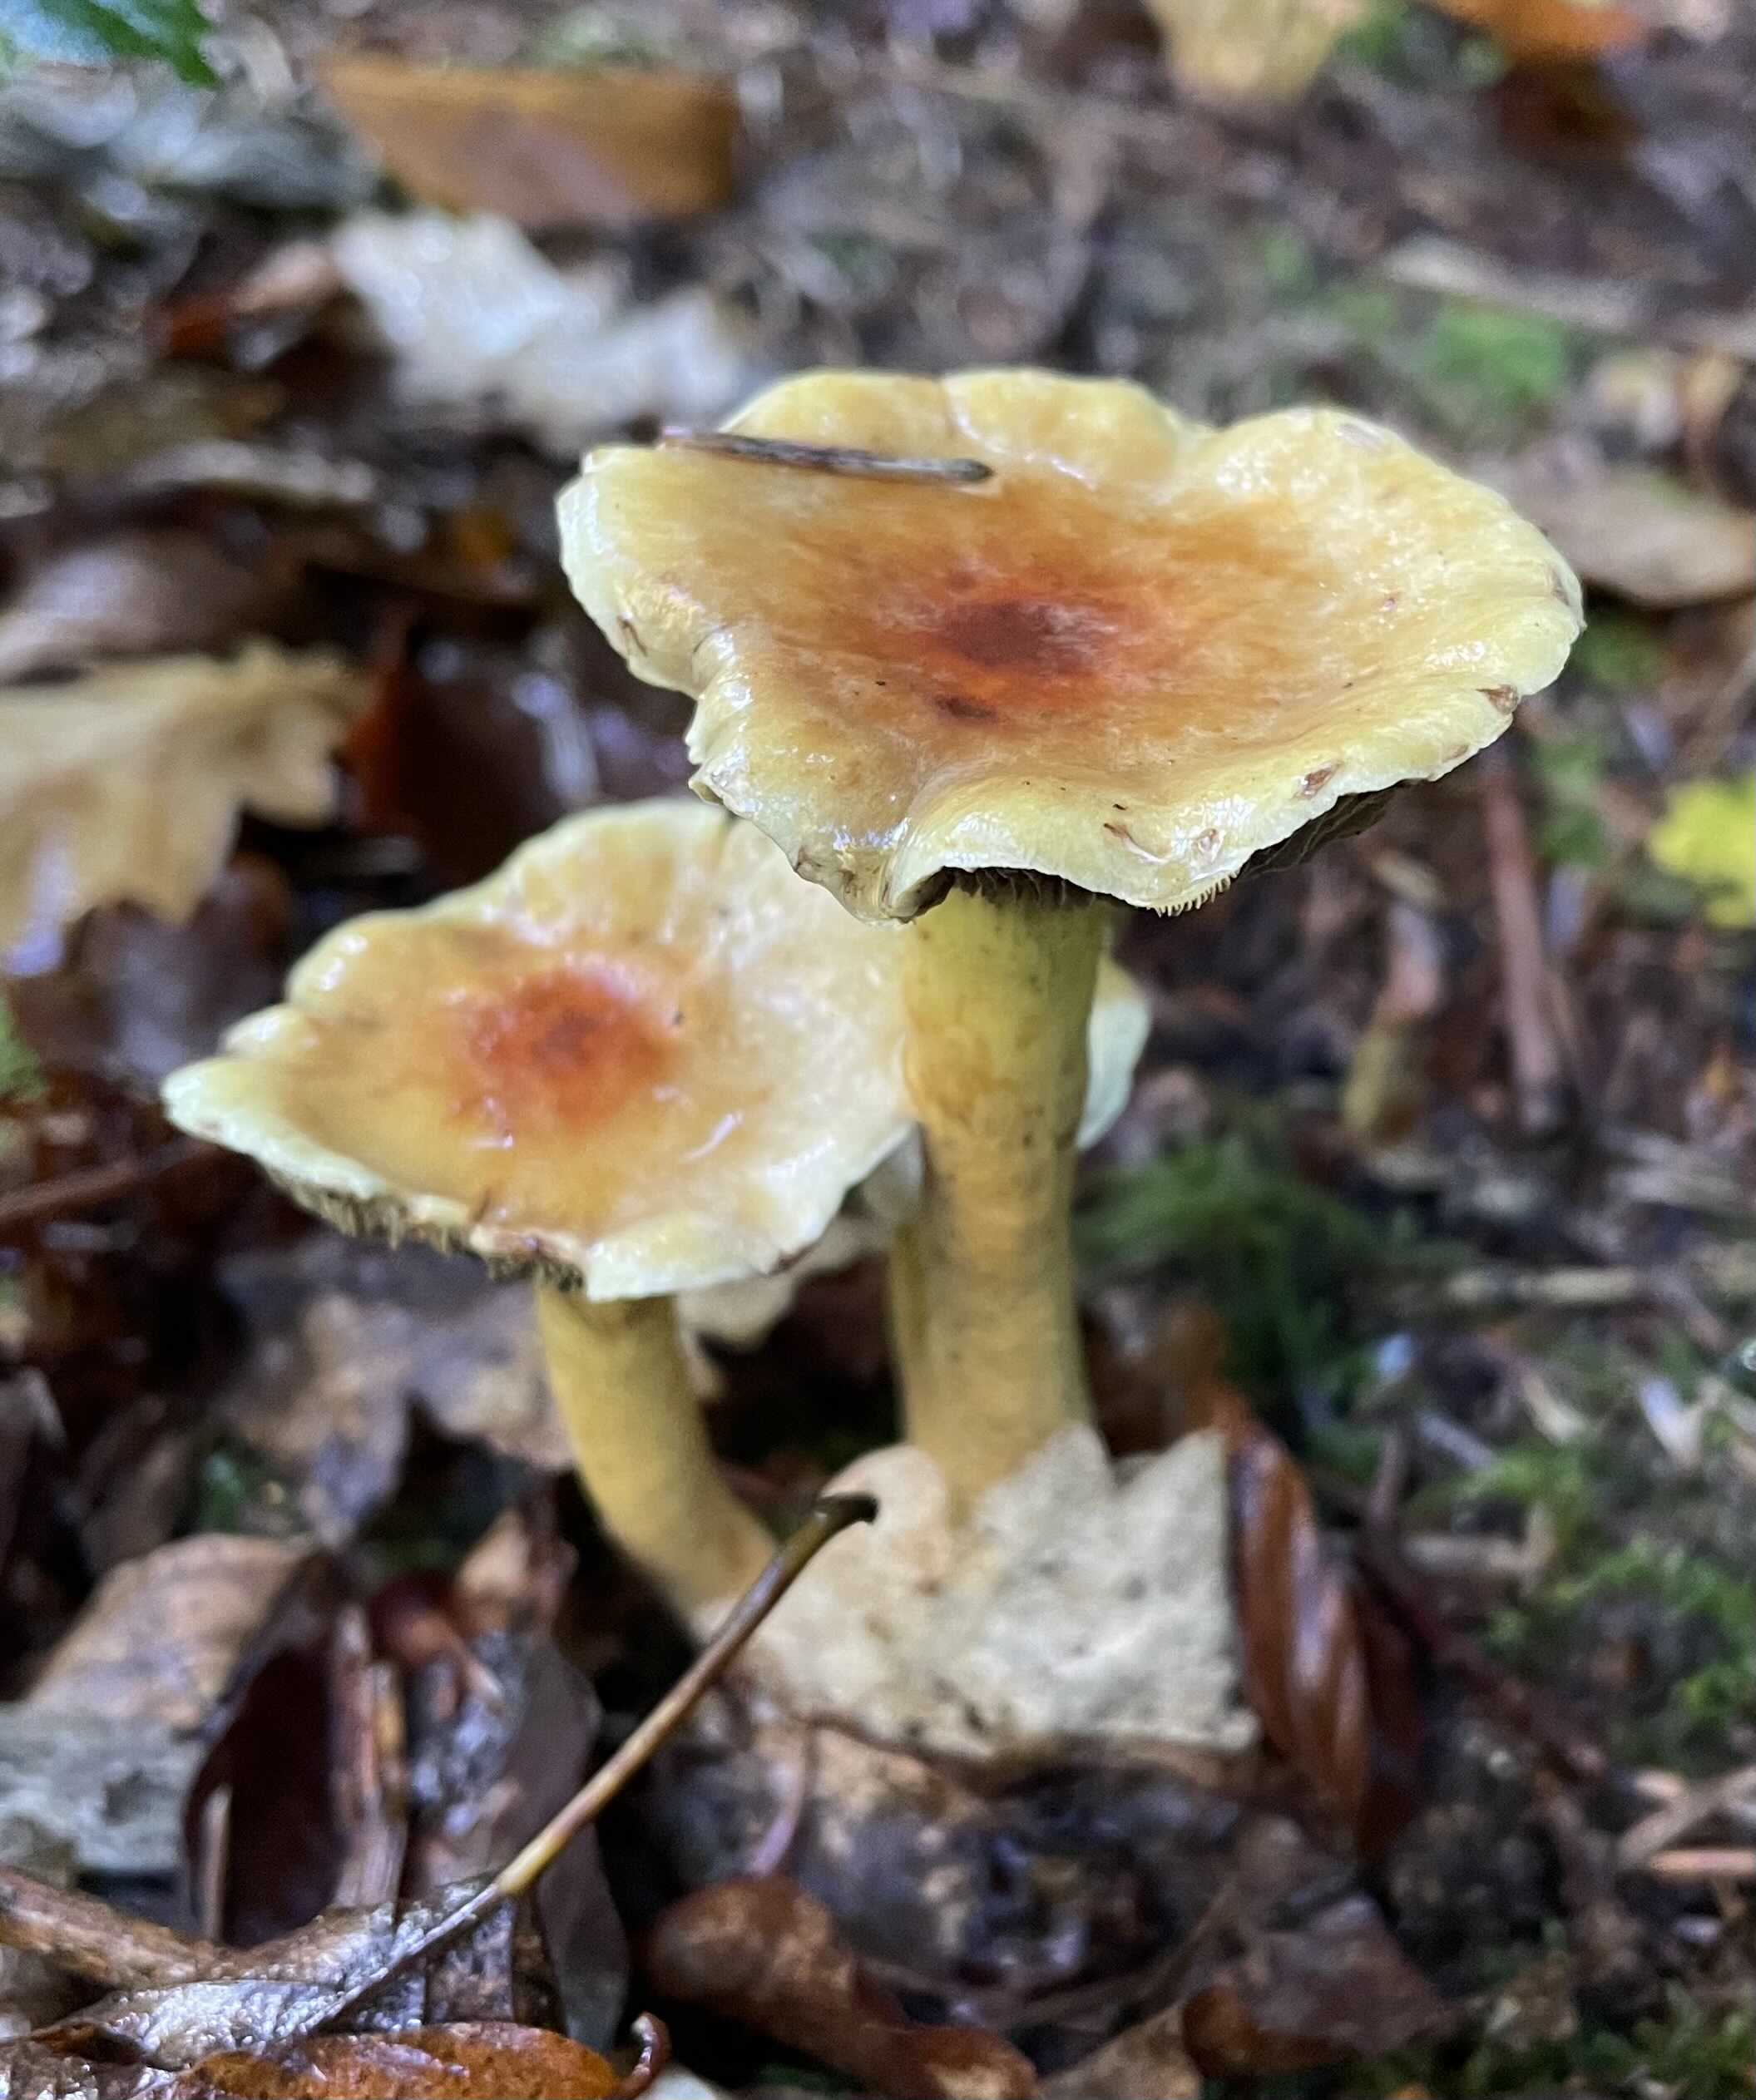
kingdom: Fungi
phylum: Basidiomycota
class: Agaricomycetes
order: Agaricales
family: Strophariaceae
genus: Hypholoma
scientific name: Hypholoma fasciculare
